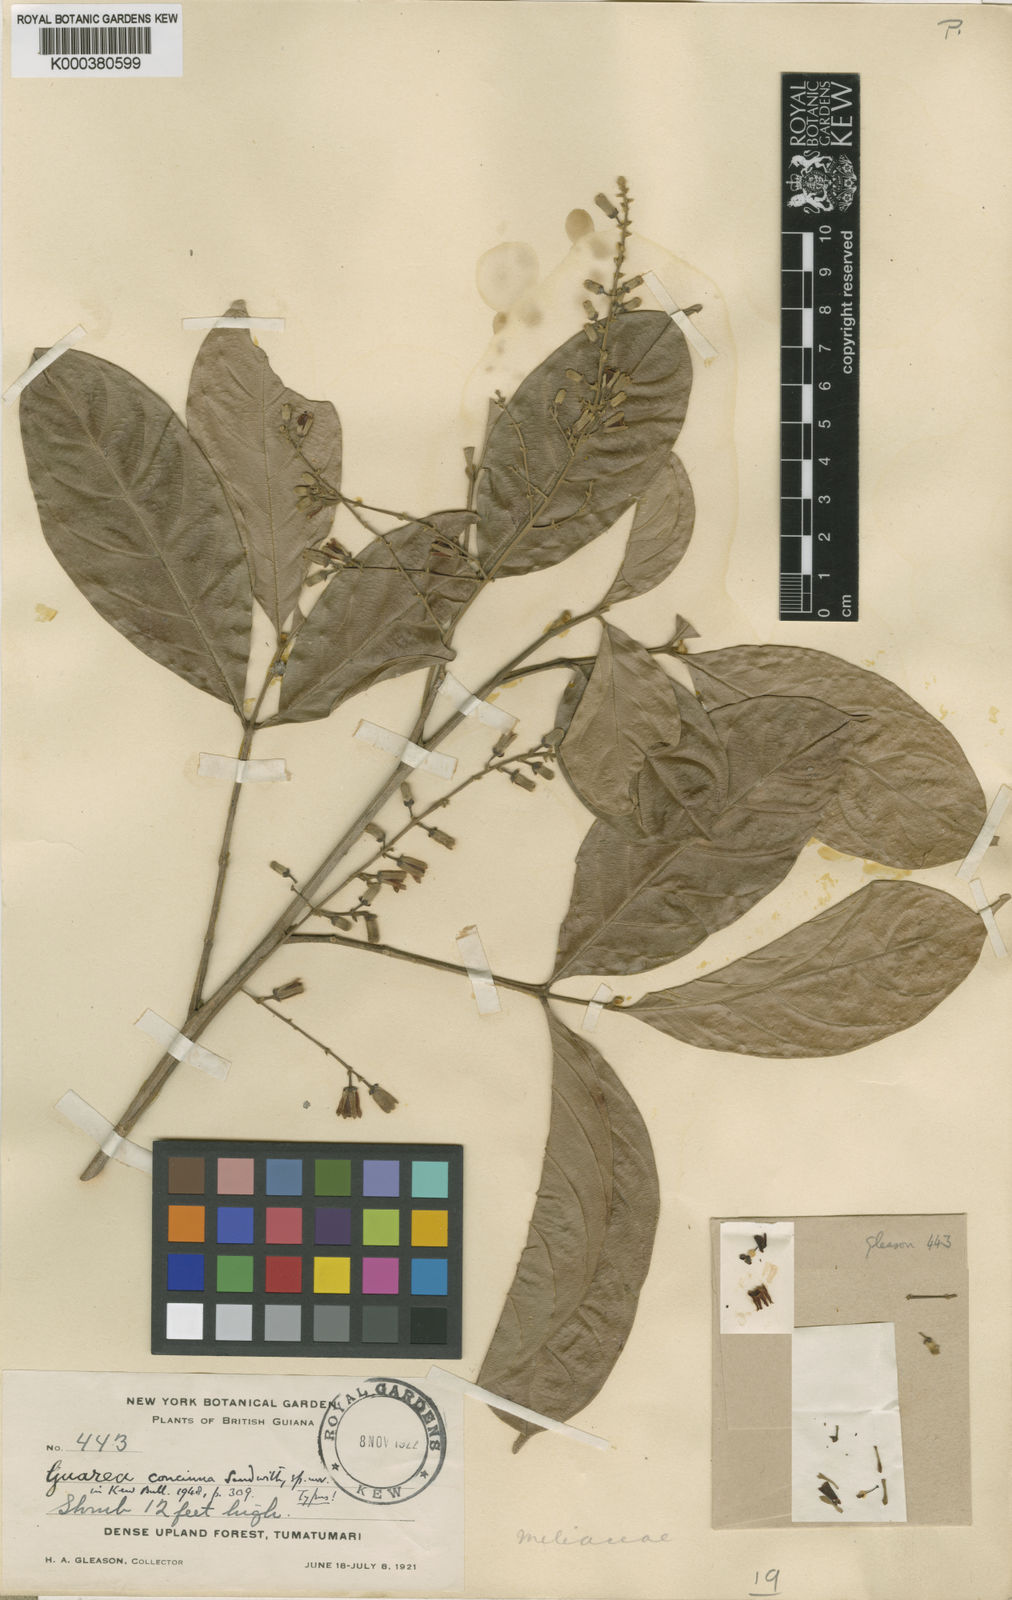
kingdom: Plantae
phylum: Tracheophyta
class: Magnoliopsida
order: Sapindales
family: Meliaceae
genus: Guarea
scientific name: Guarea pubescens
